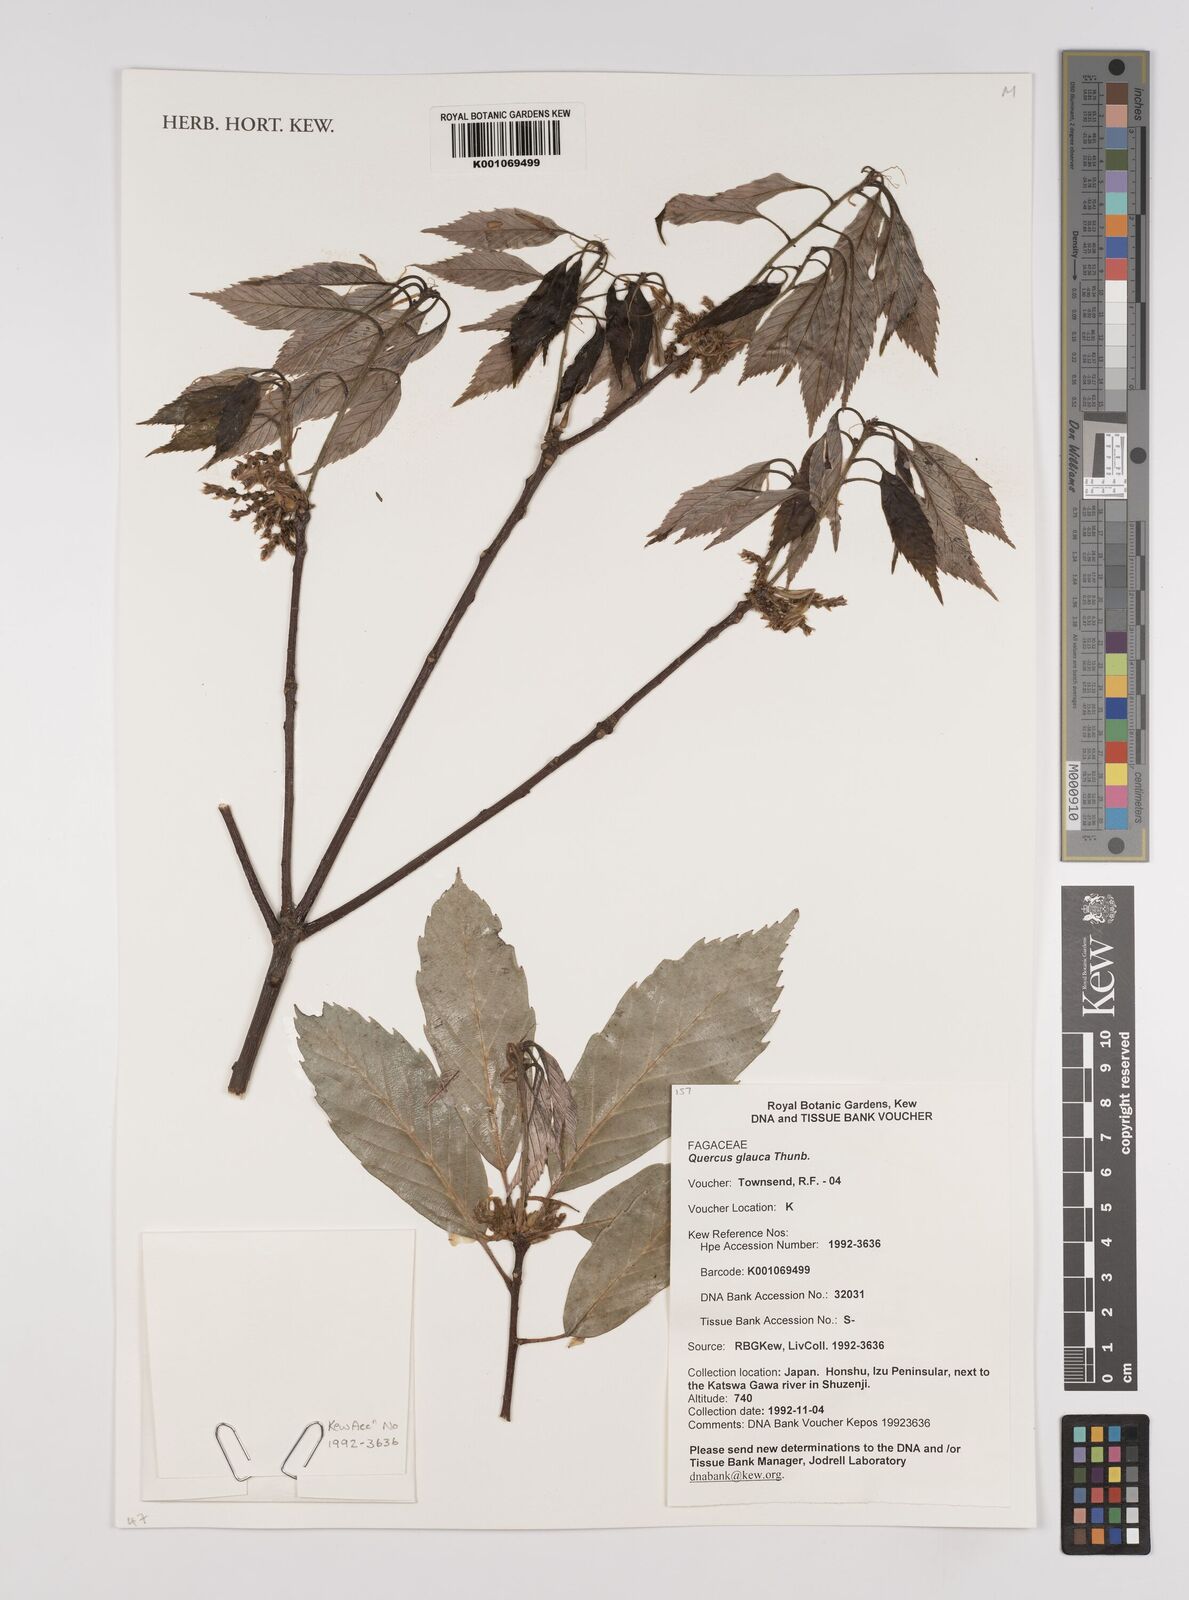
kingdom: Plantae
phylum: Tracheophyta
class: Magnoliopsida
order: Fagales
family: Fagaceae
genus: Quercus
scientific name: Quercus glauca
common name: Ring-cup oak
